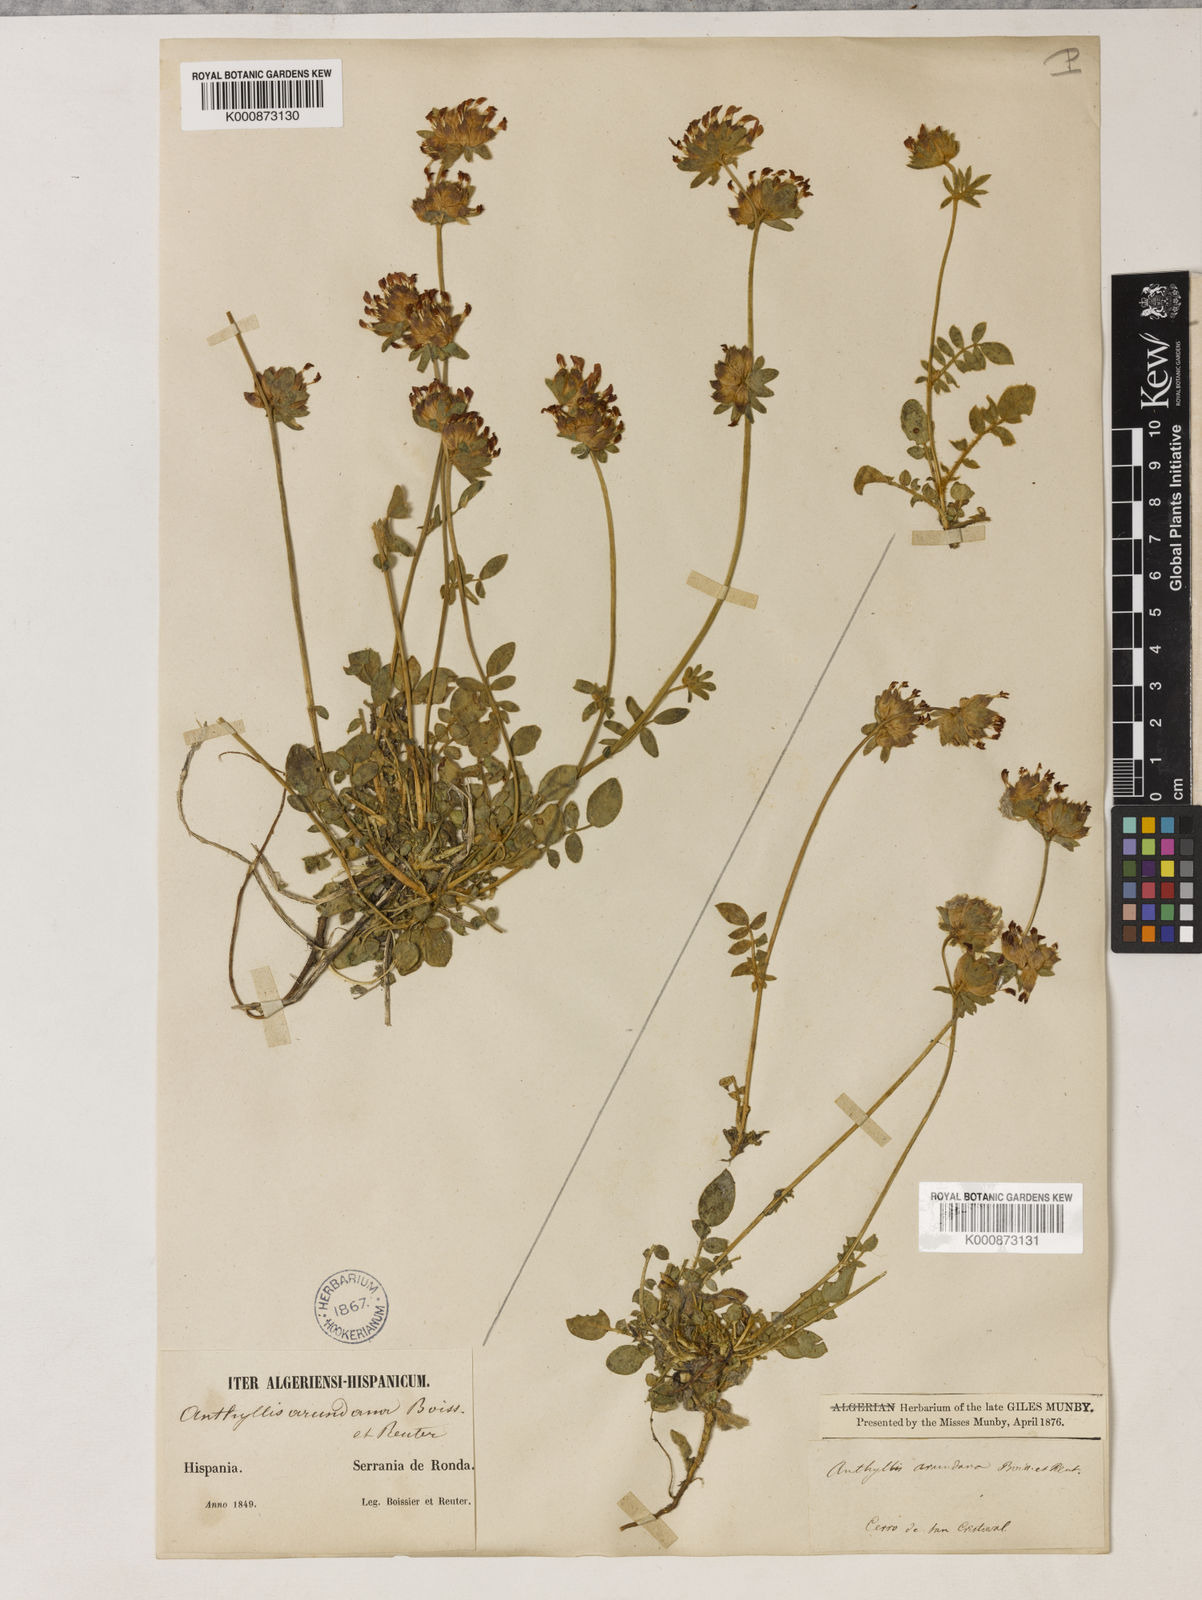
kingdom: Plantae
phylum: Tracheophyta
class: Magnoliopsida
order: Fabales
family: Fabaceae
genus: Anthyllis
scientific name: Anthyllis vulneraria
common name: Kidney vetch
